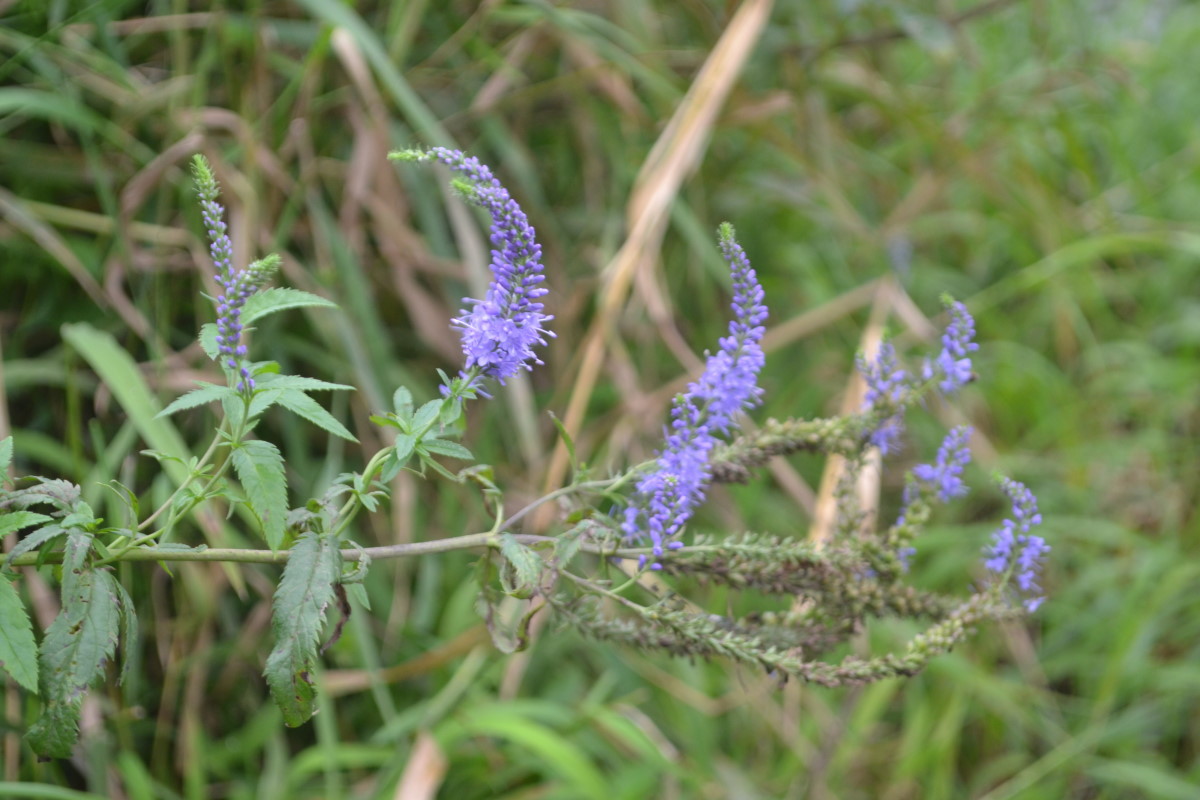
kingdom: Plantae
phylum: Tracheophyta
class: Magnoliopsida
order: Lamiales
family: Plantaginaceae
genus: Veronica
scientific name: Veronica longifolia
